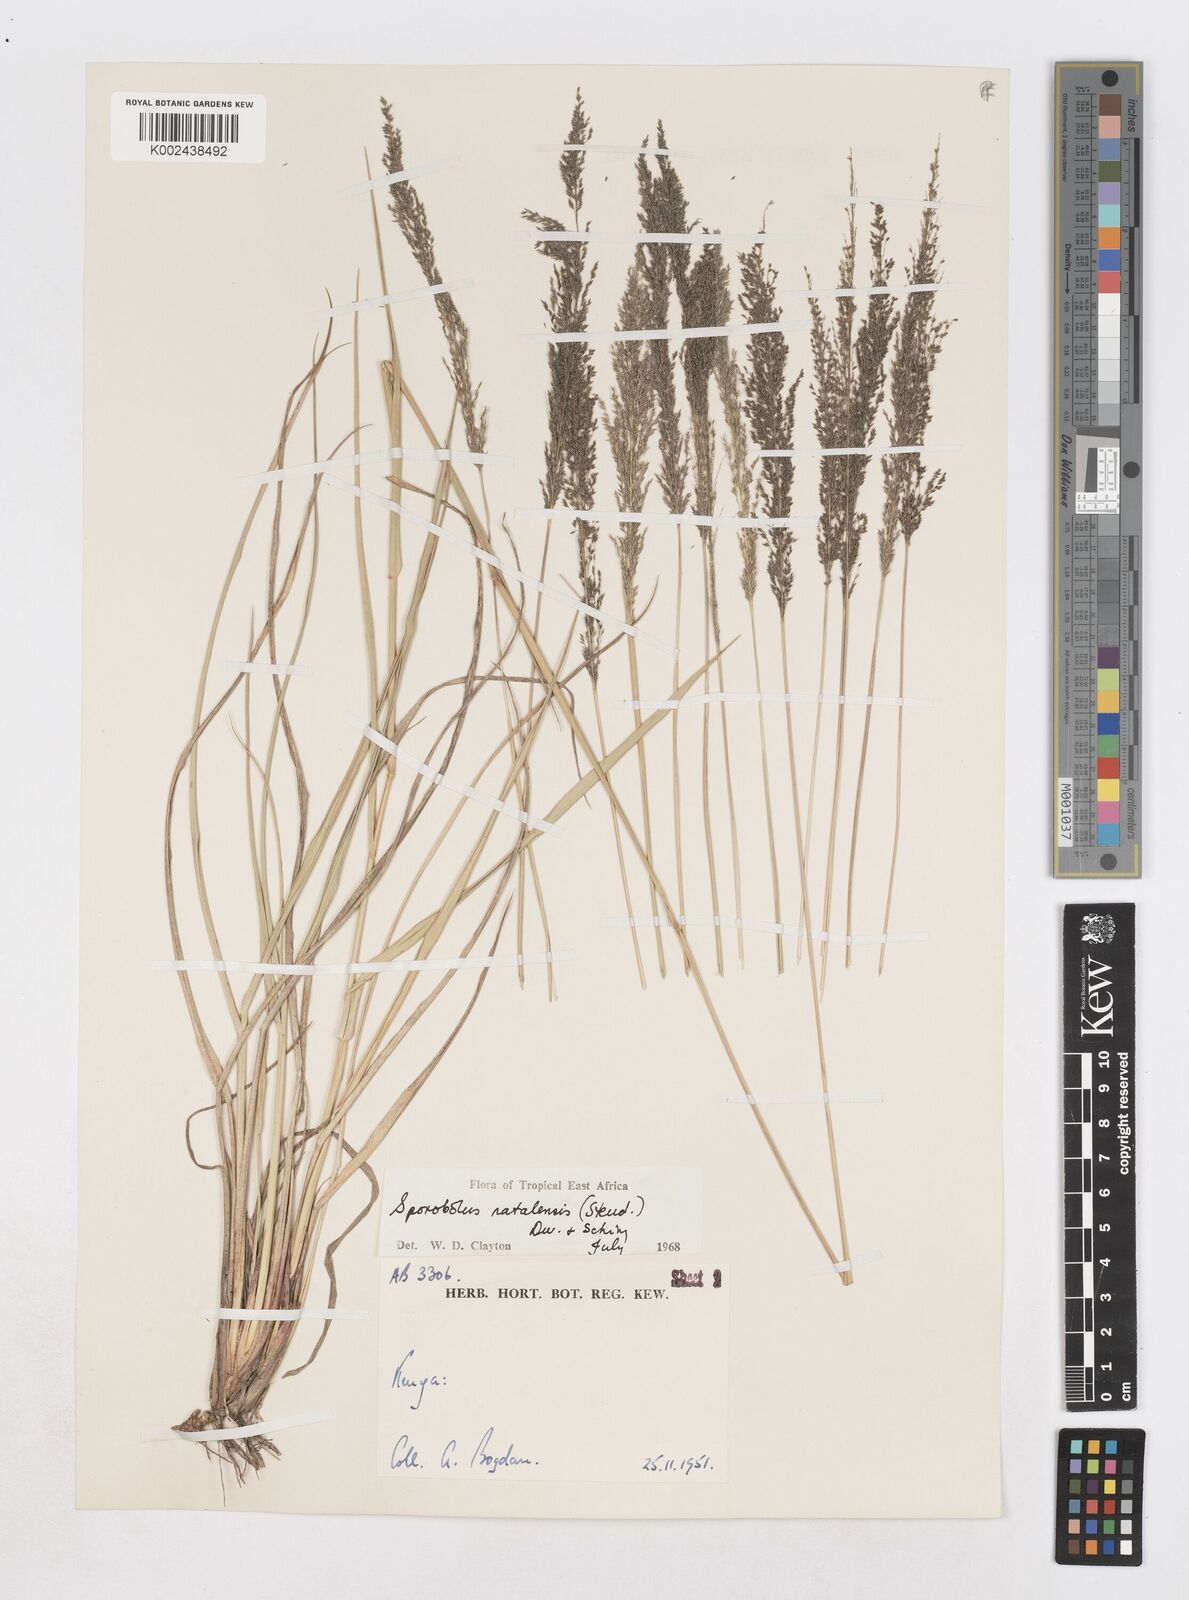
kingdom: Plantae
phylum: Tracheophyta
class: Liliopsida
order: Poales
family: Poaceae
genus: Sporobolus
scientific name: Sporobolus natalensis
